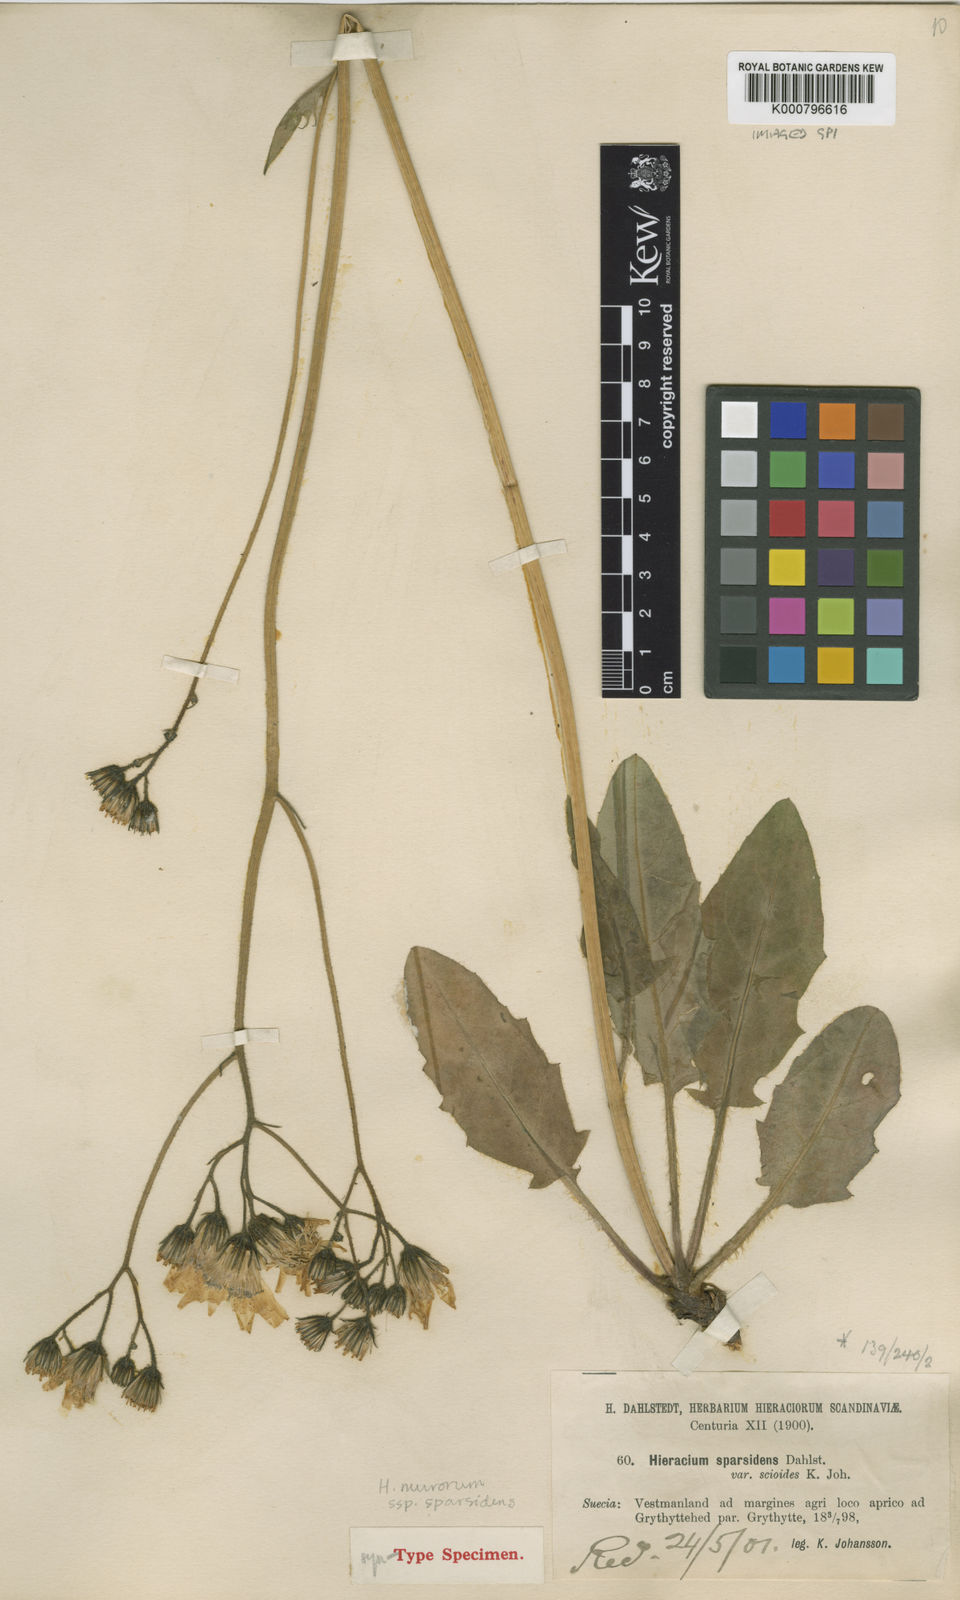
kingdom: Plantae
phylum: Tracheophyta
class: Magnoliopsida
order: Asterales
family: Asteraceae
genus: Hieracium
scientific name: Hieracium murorum
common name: Wall hawkweed
